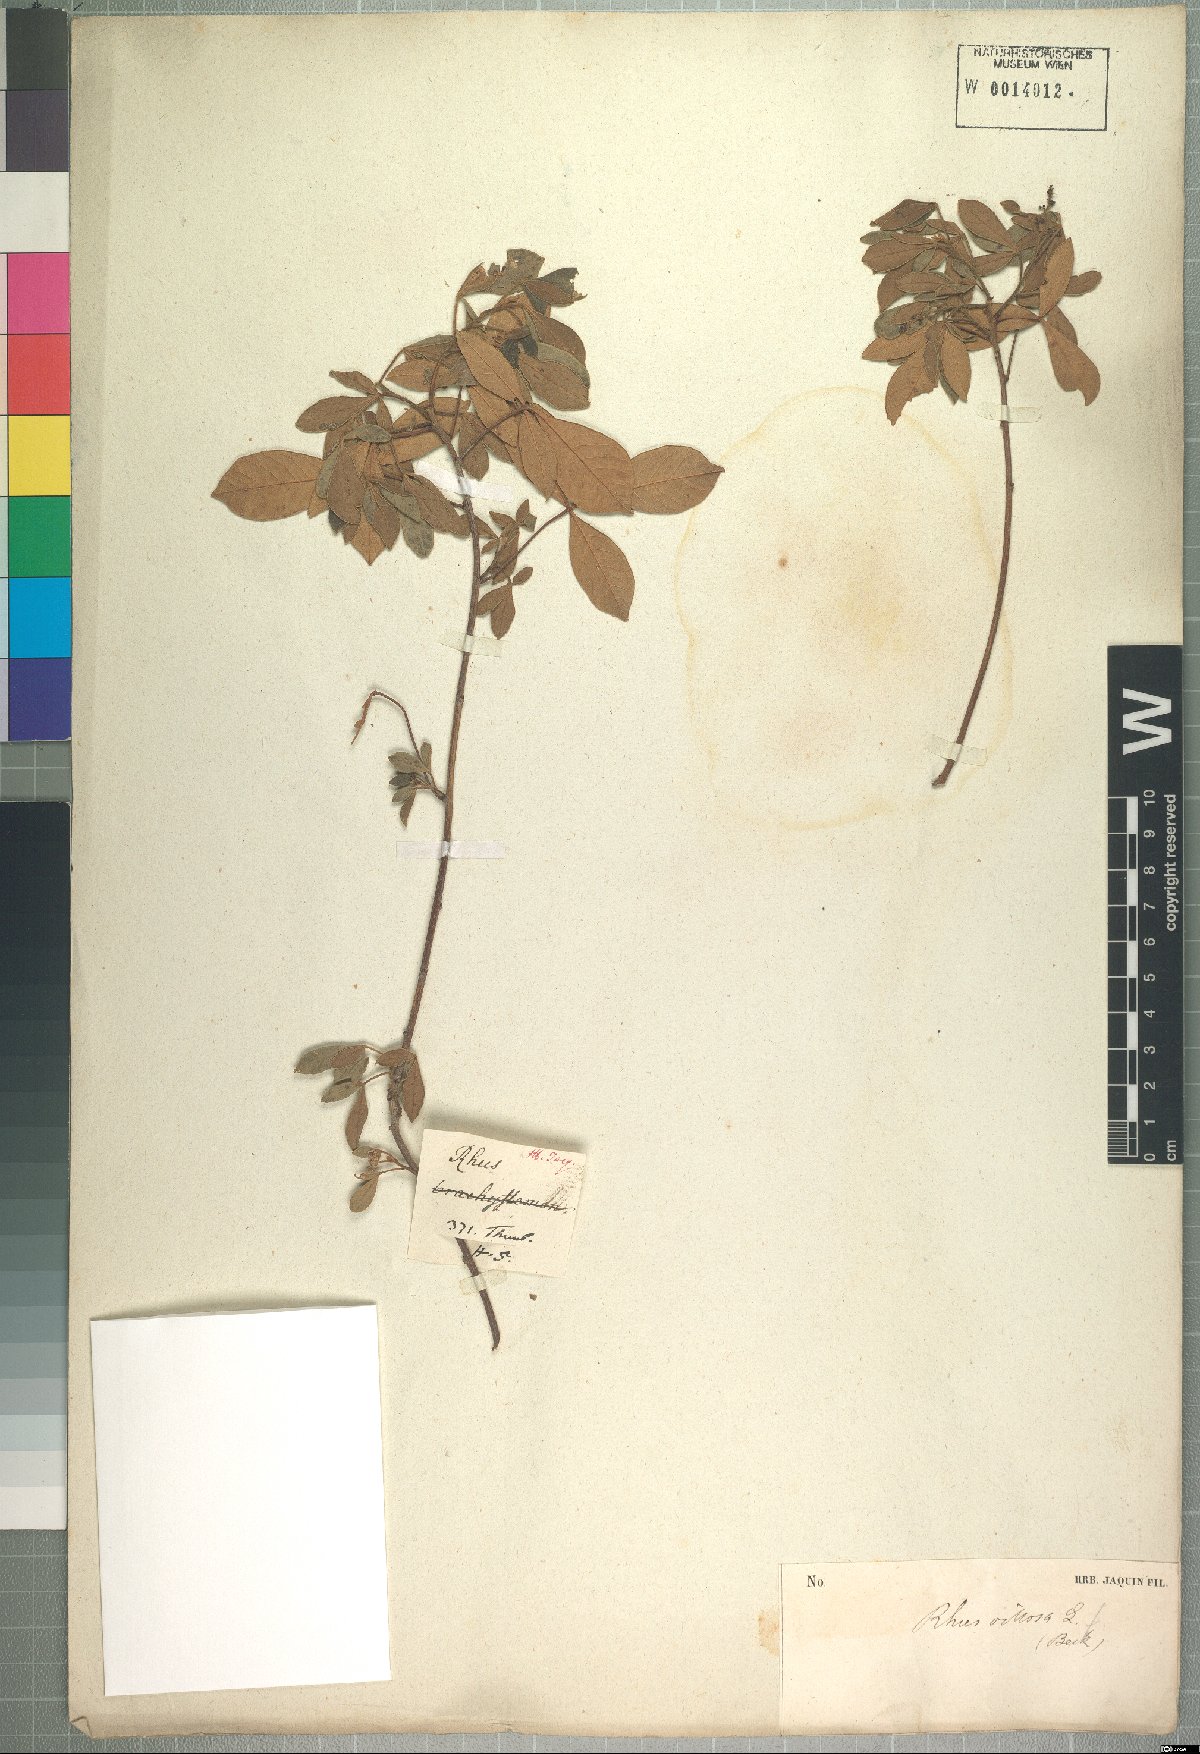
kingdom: Plantae
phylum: Tracheophyta
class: Magnoliopsida
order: Sapindales
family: Anacardiaceae
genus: Searsia
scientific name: Searsia laevigata
